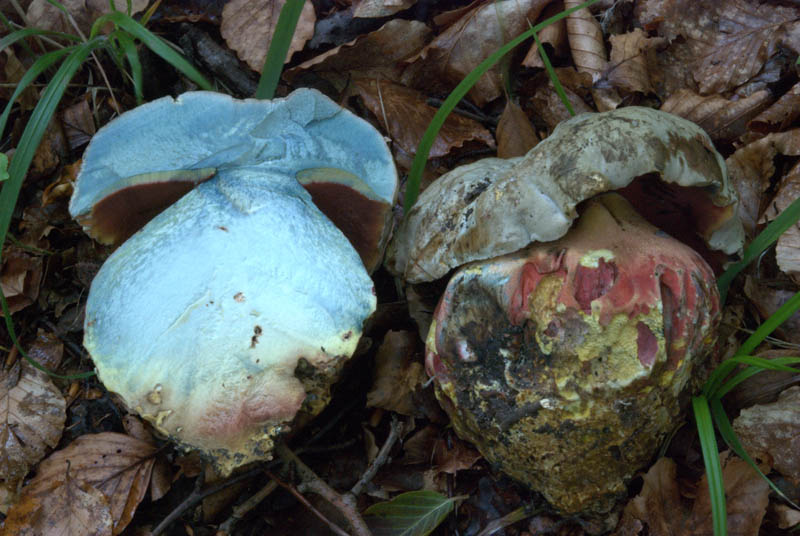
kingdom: Fungi
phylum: Basidiomycota
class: Agaricomycetes
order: Boletales
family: Boletaceae
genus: Rubroboletus
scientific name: Rubroboletus satanas
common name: Satans rørhat
